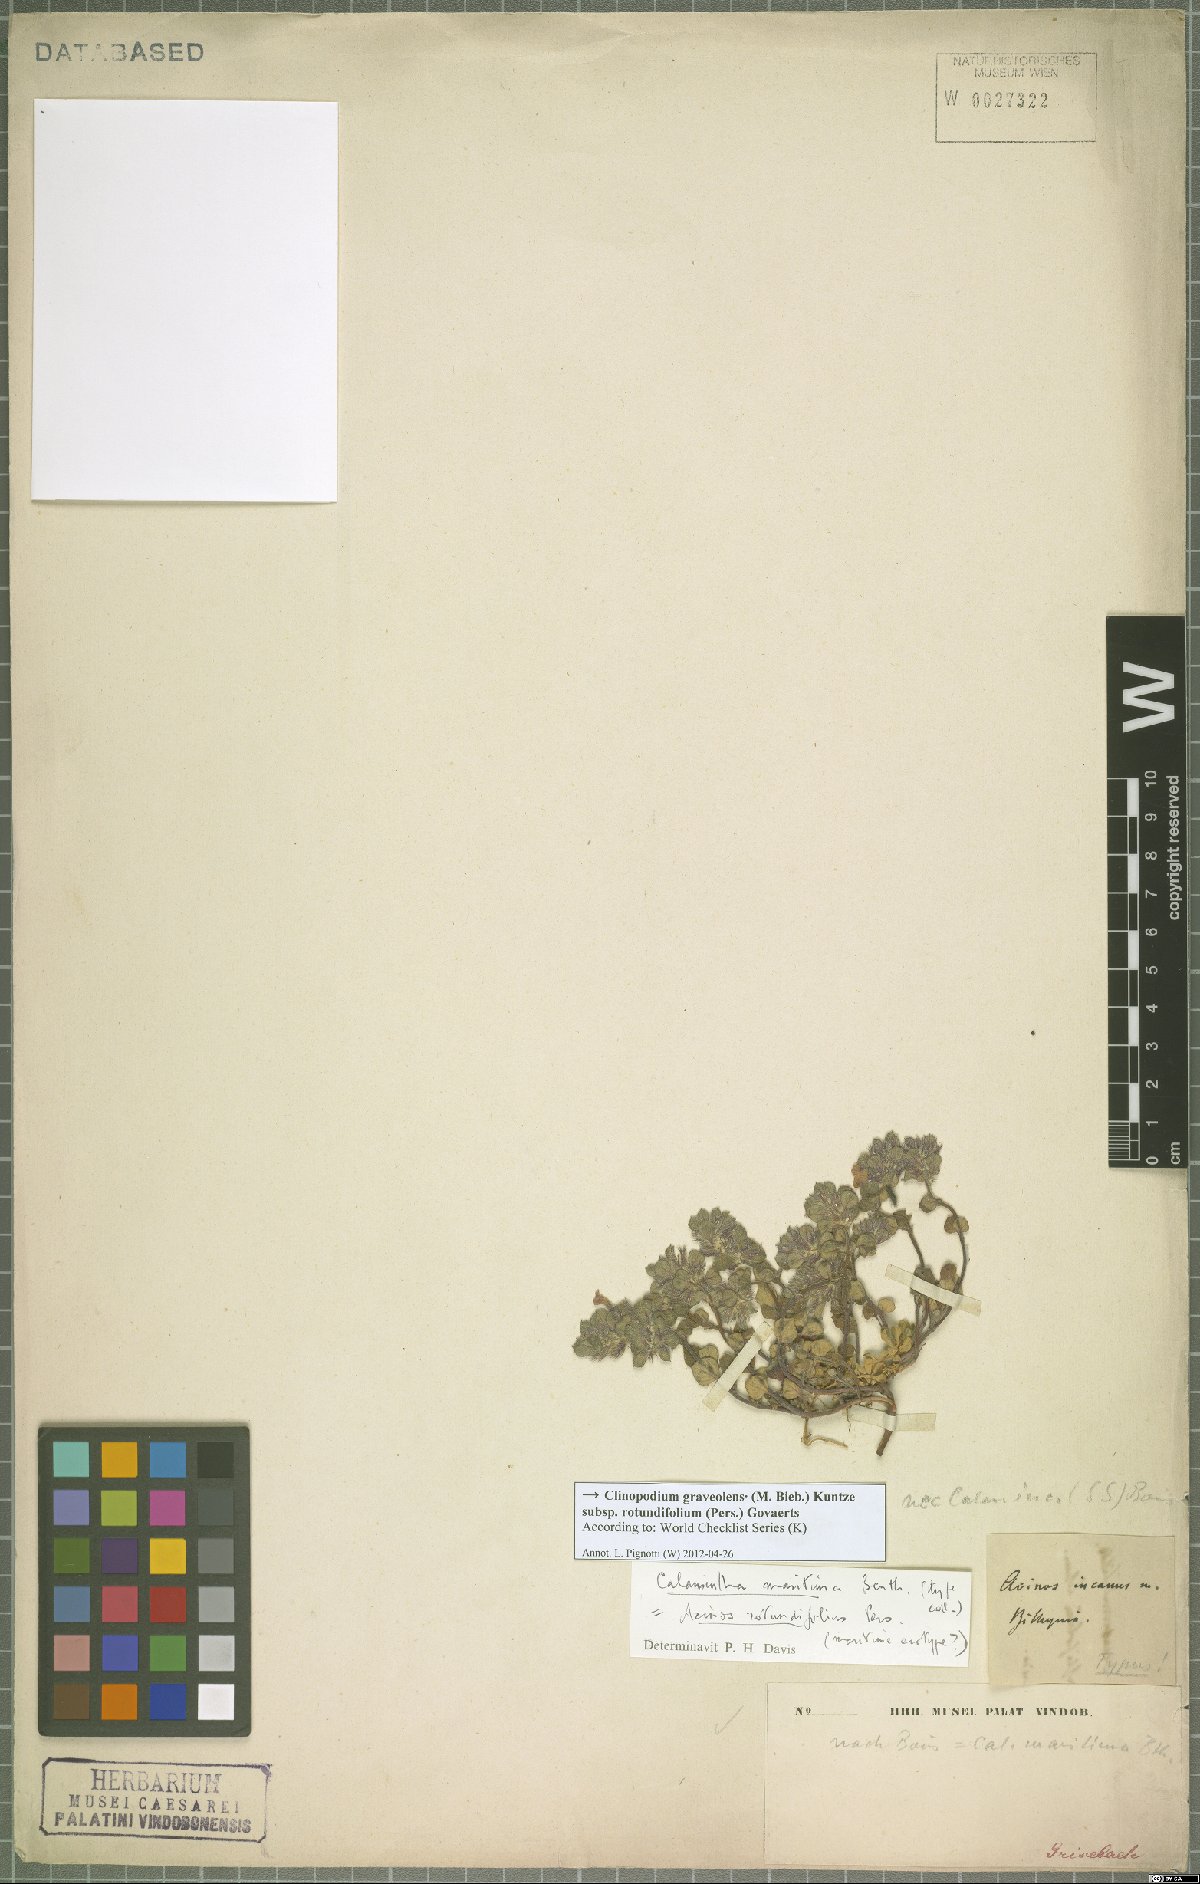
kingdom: Plantae
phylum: Tracheophyta
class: Magnoliopsida
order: Lamiales
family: Lamiaceae
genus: Clinopodium
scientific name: Clinopodium graveolens
